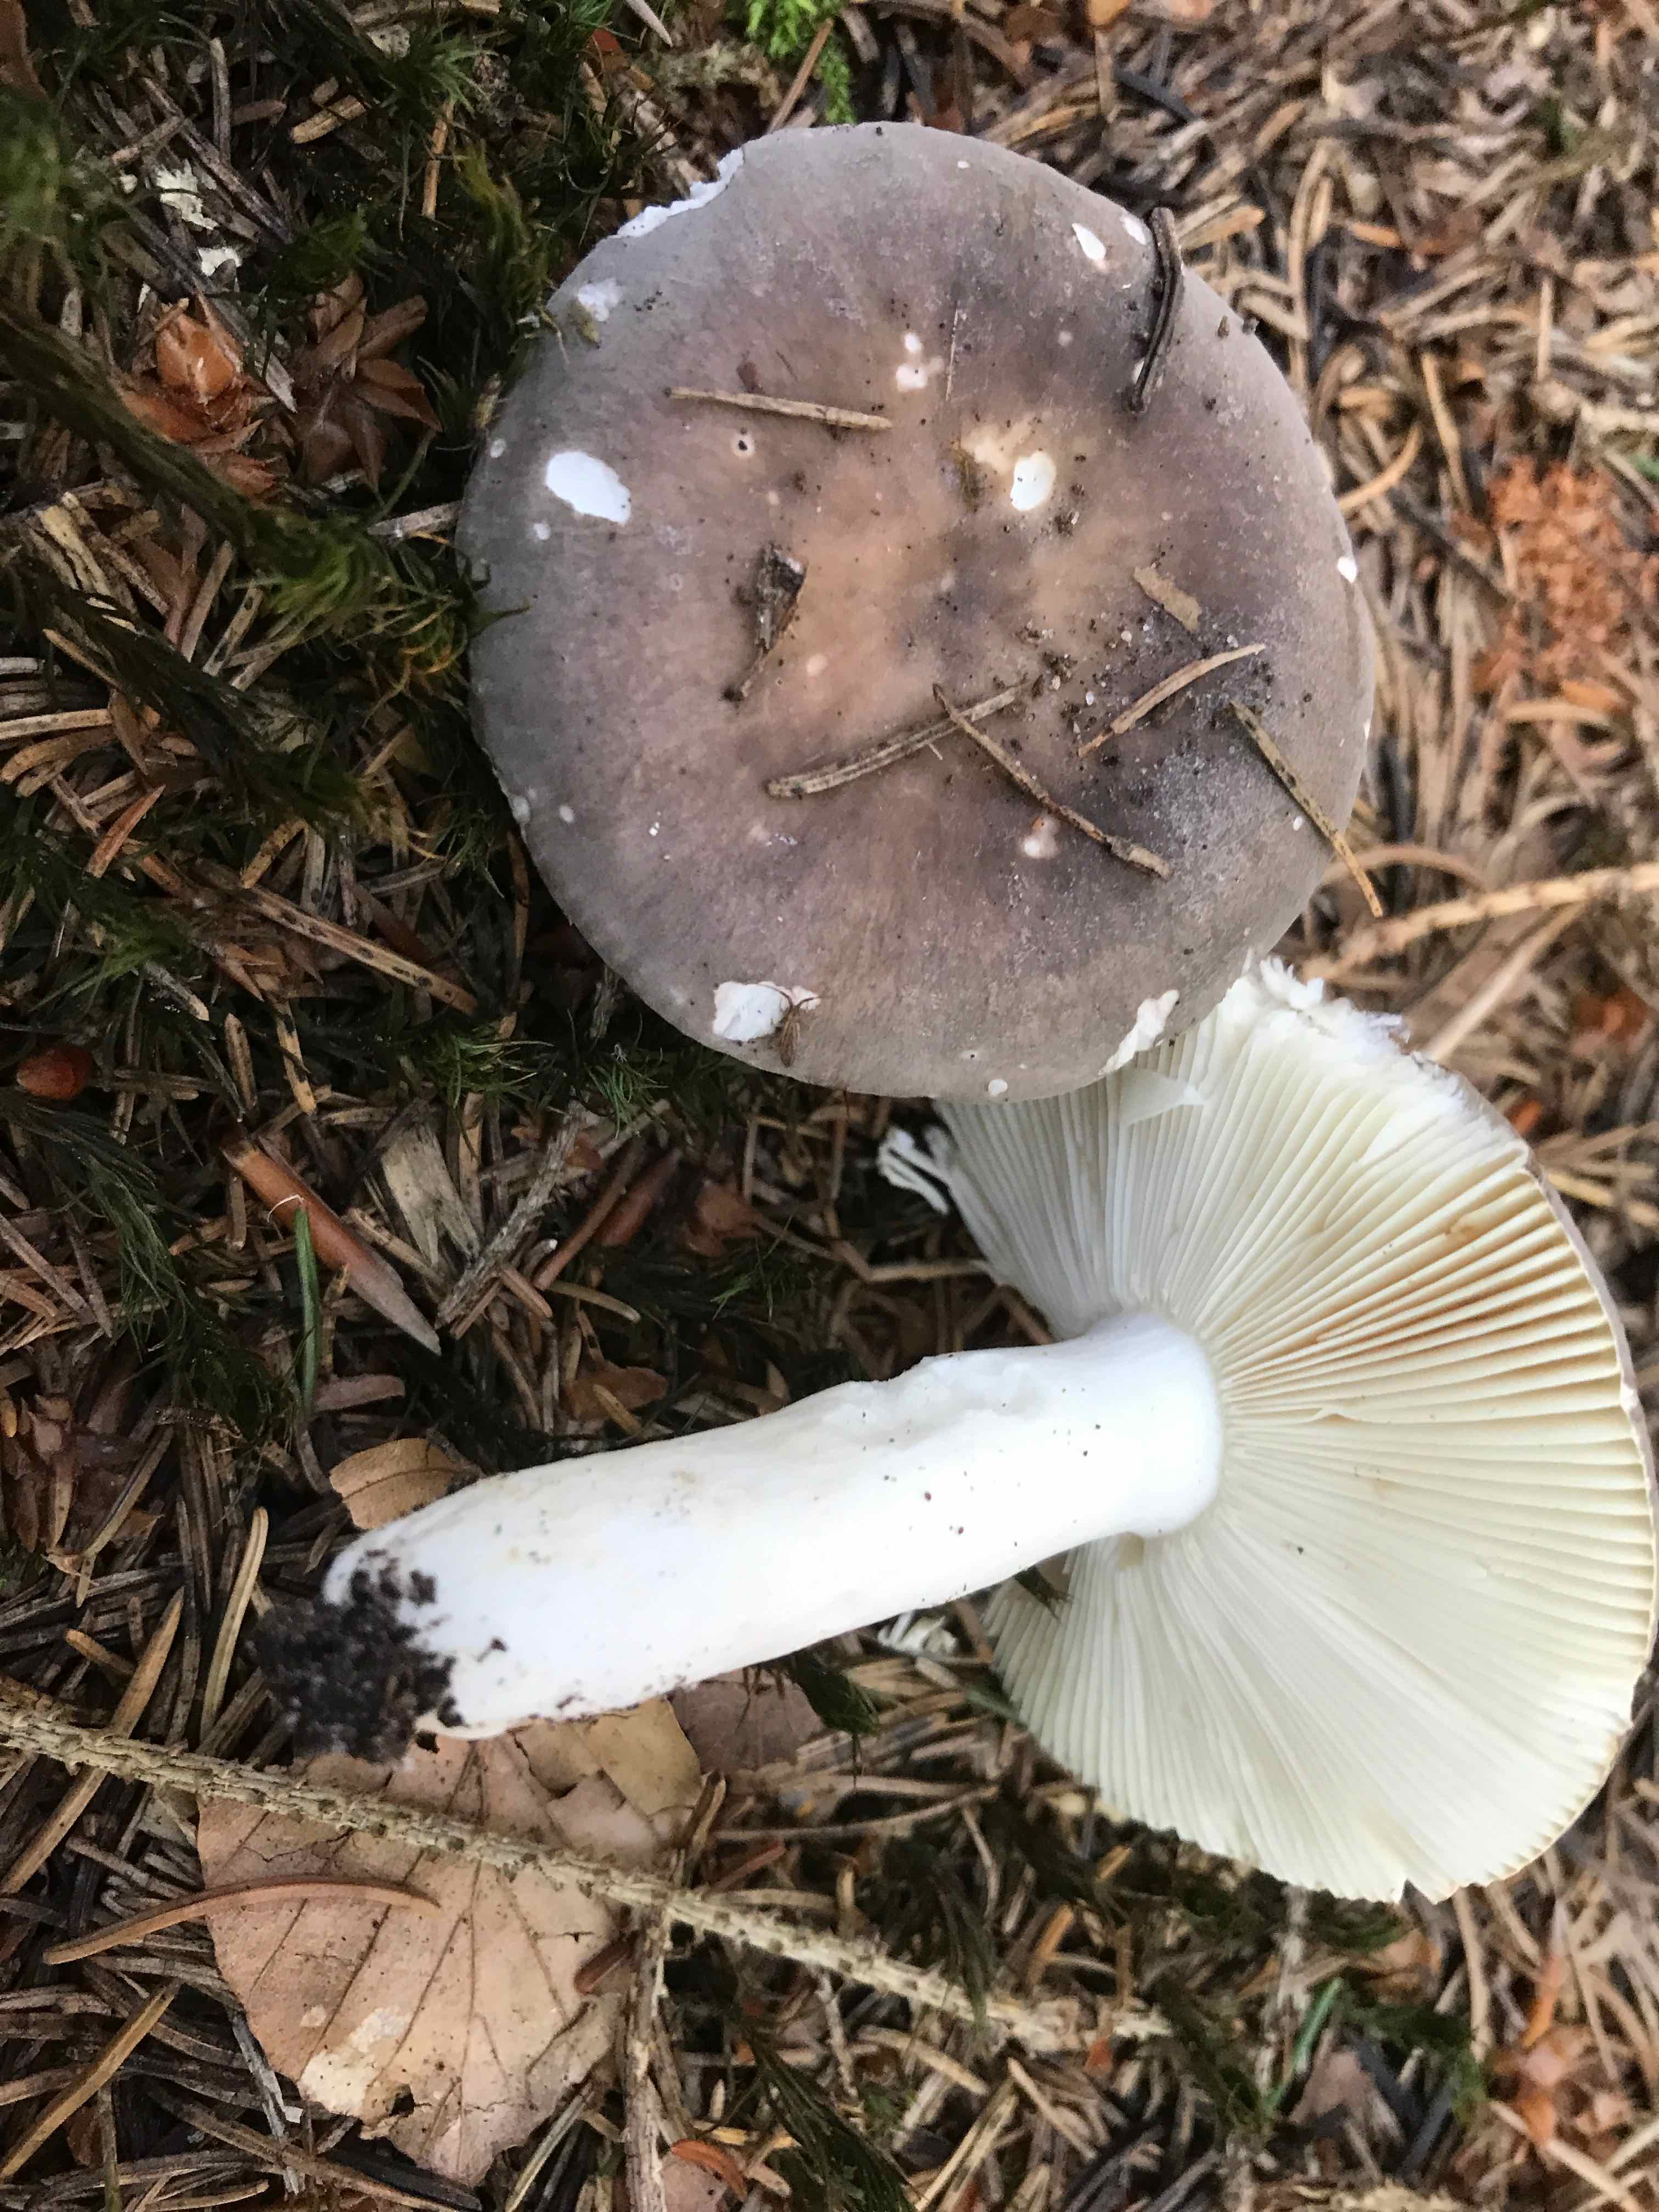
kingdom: Fungi
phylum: Basidiomycota
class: Agaricomycetes
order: Russulales
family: Russulaceae
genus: Russula
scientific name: Russula
